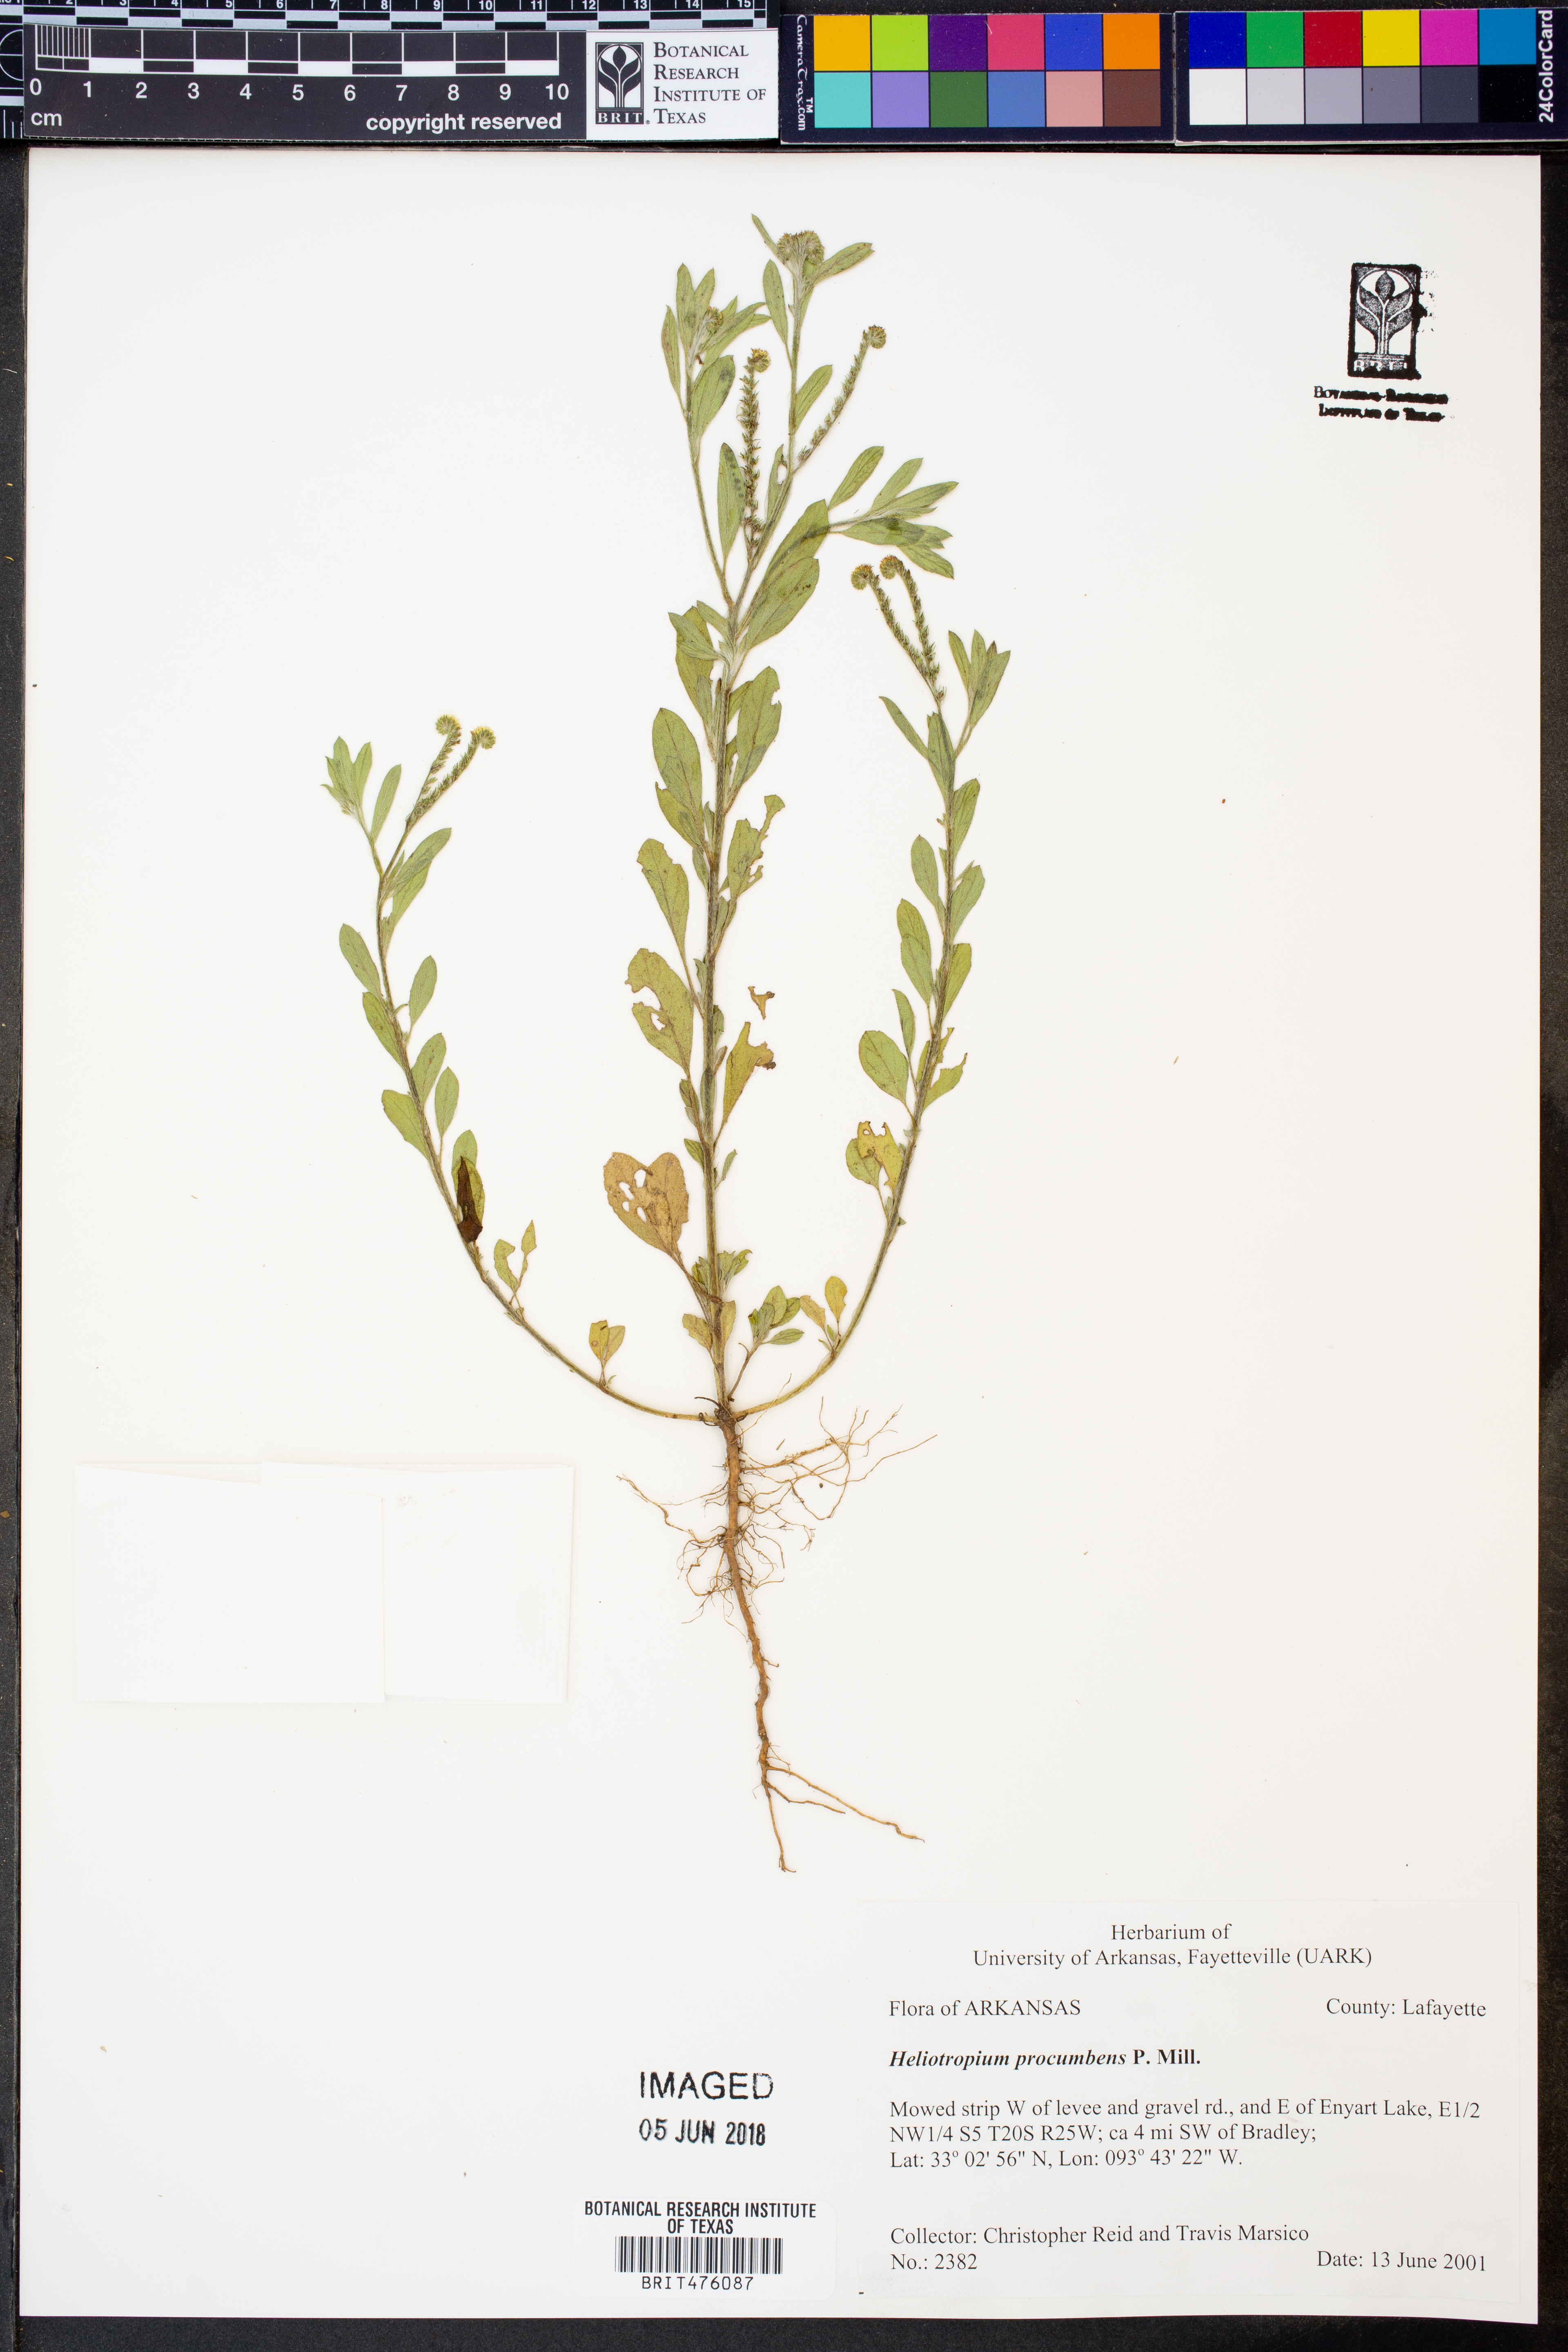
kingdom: Plantae
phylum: Tracheophyta
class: Magnoliopsida
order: Boraginales
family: Heliotropiaceae
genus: Euploca
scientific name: Euploca procumbens
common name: Fourspike heliotrope
